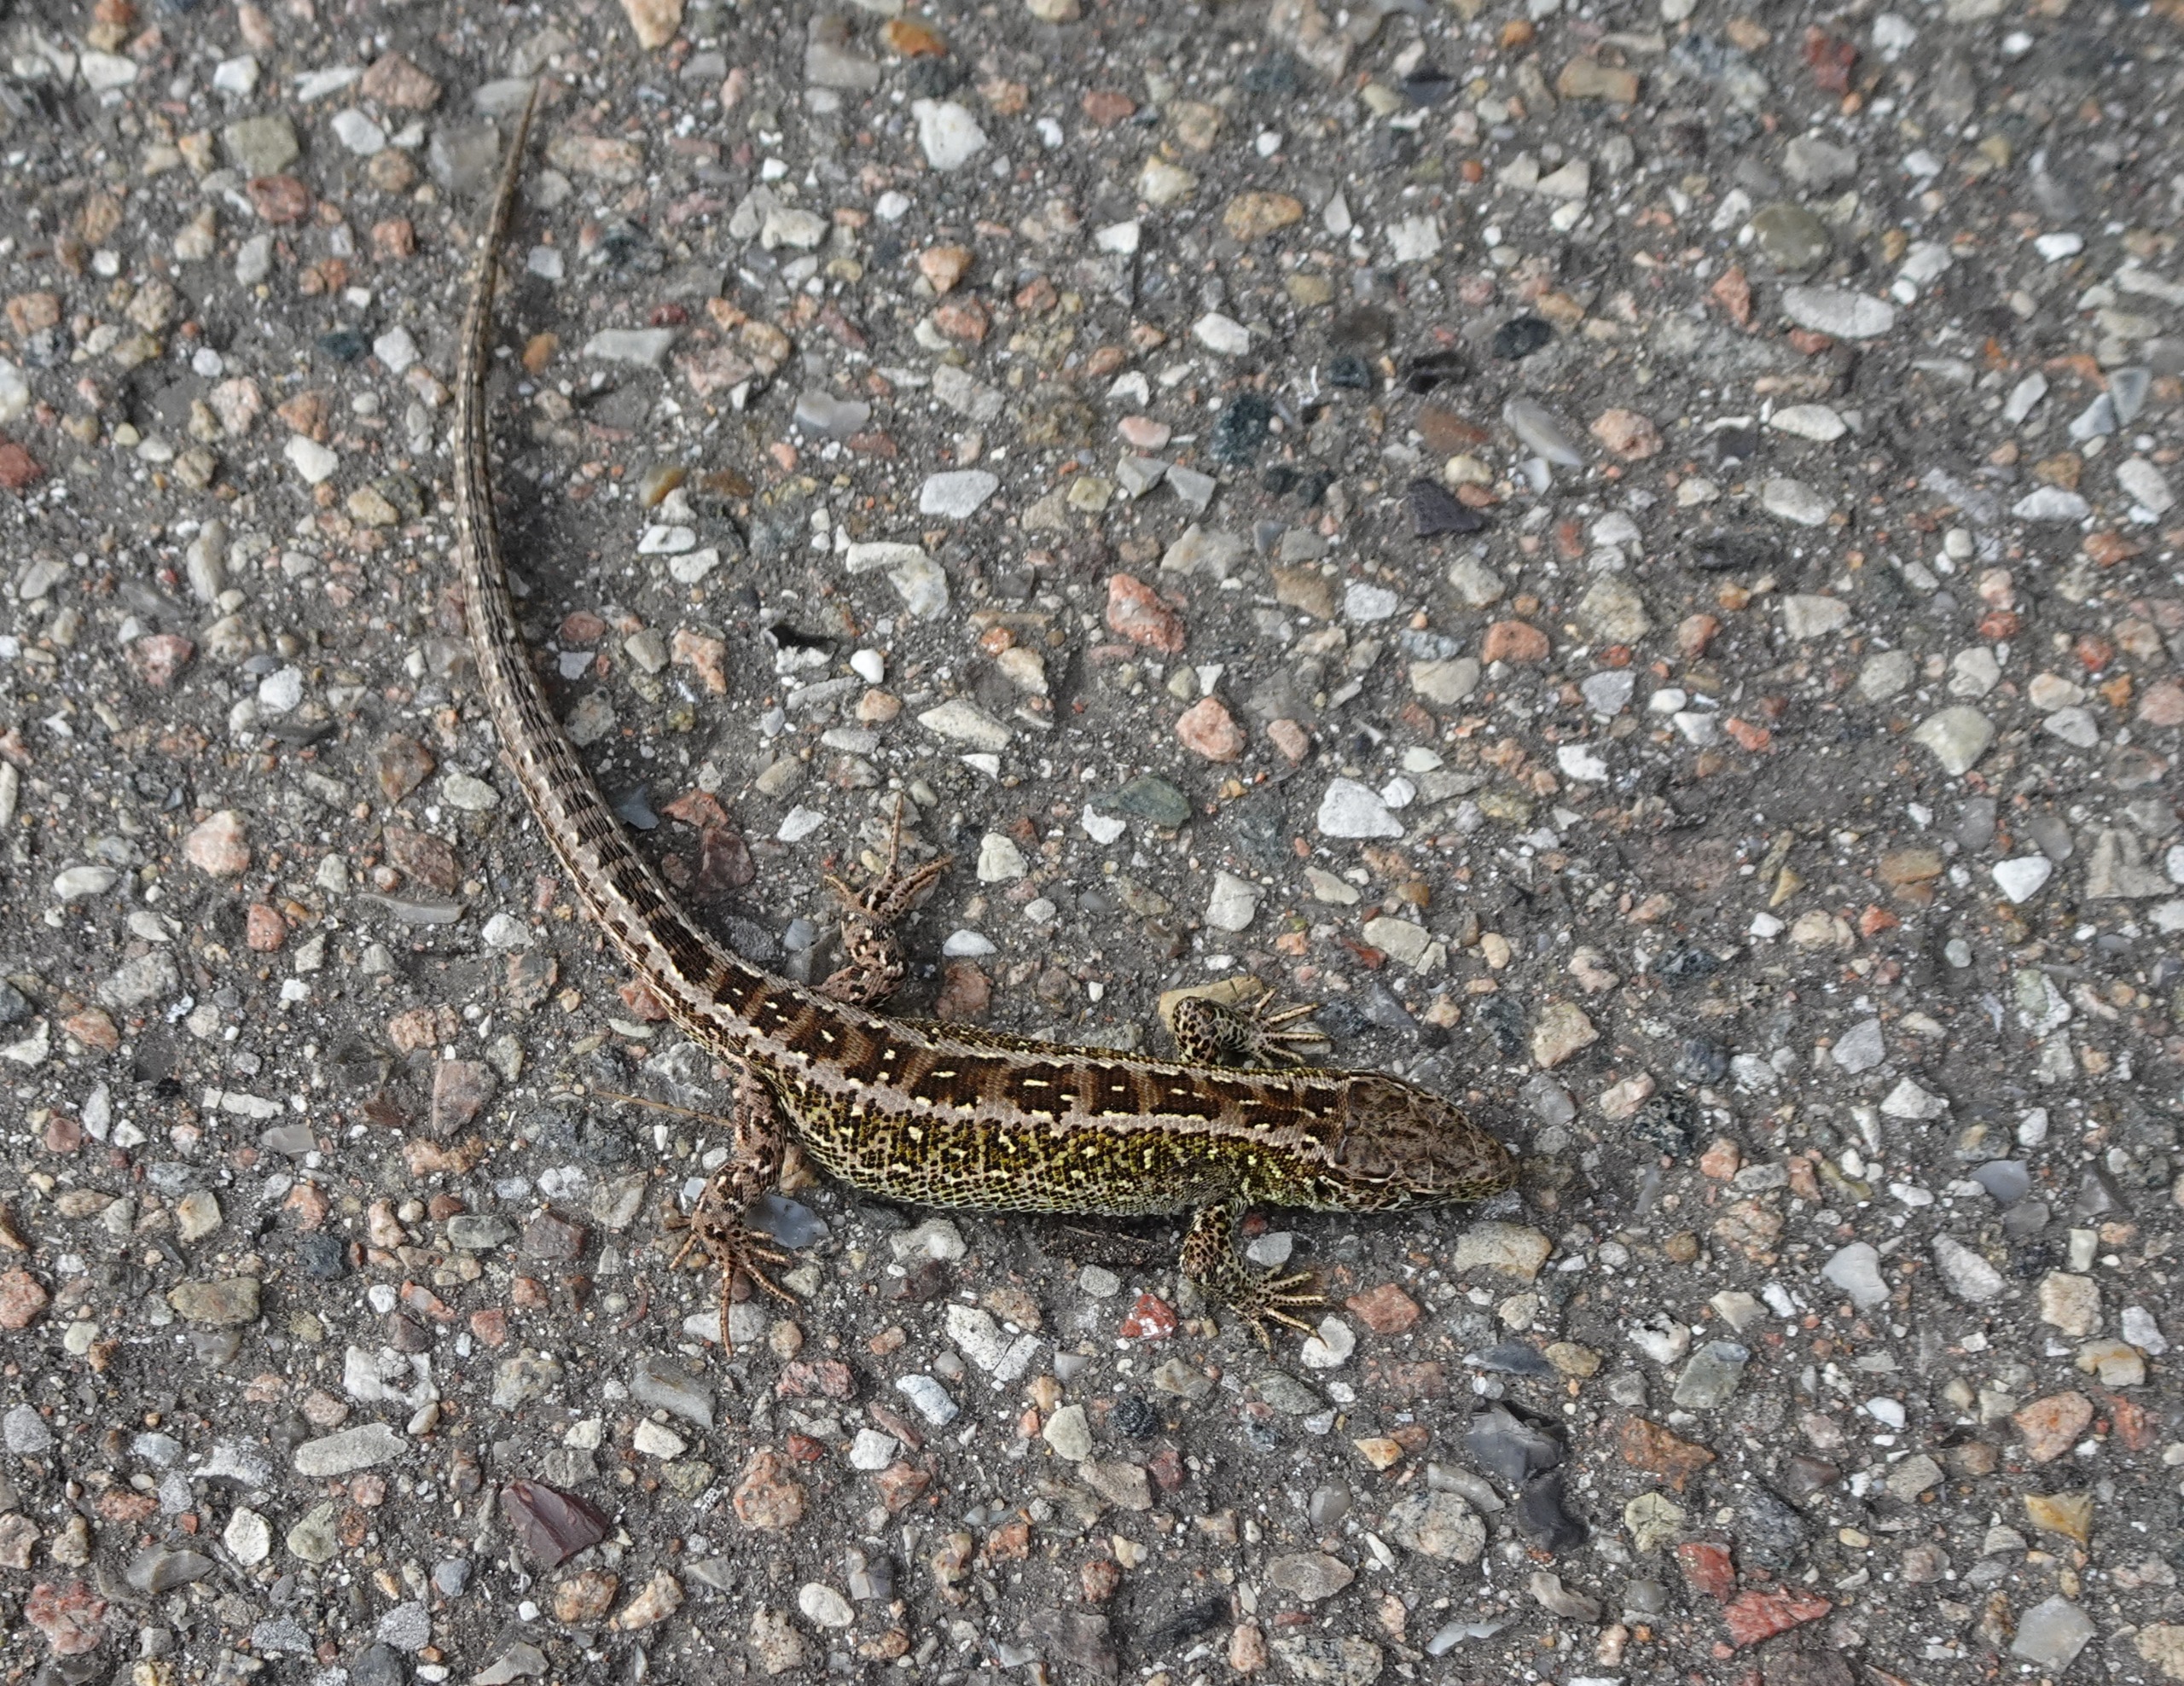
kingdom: Animalia
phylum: Chordata
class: Squamata
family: Lacertidae
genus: Lacerta
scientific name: Lacerta agilis
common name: Markfirben
